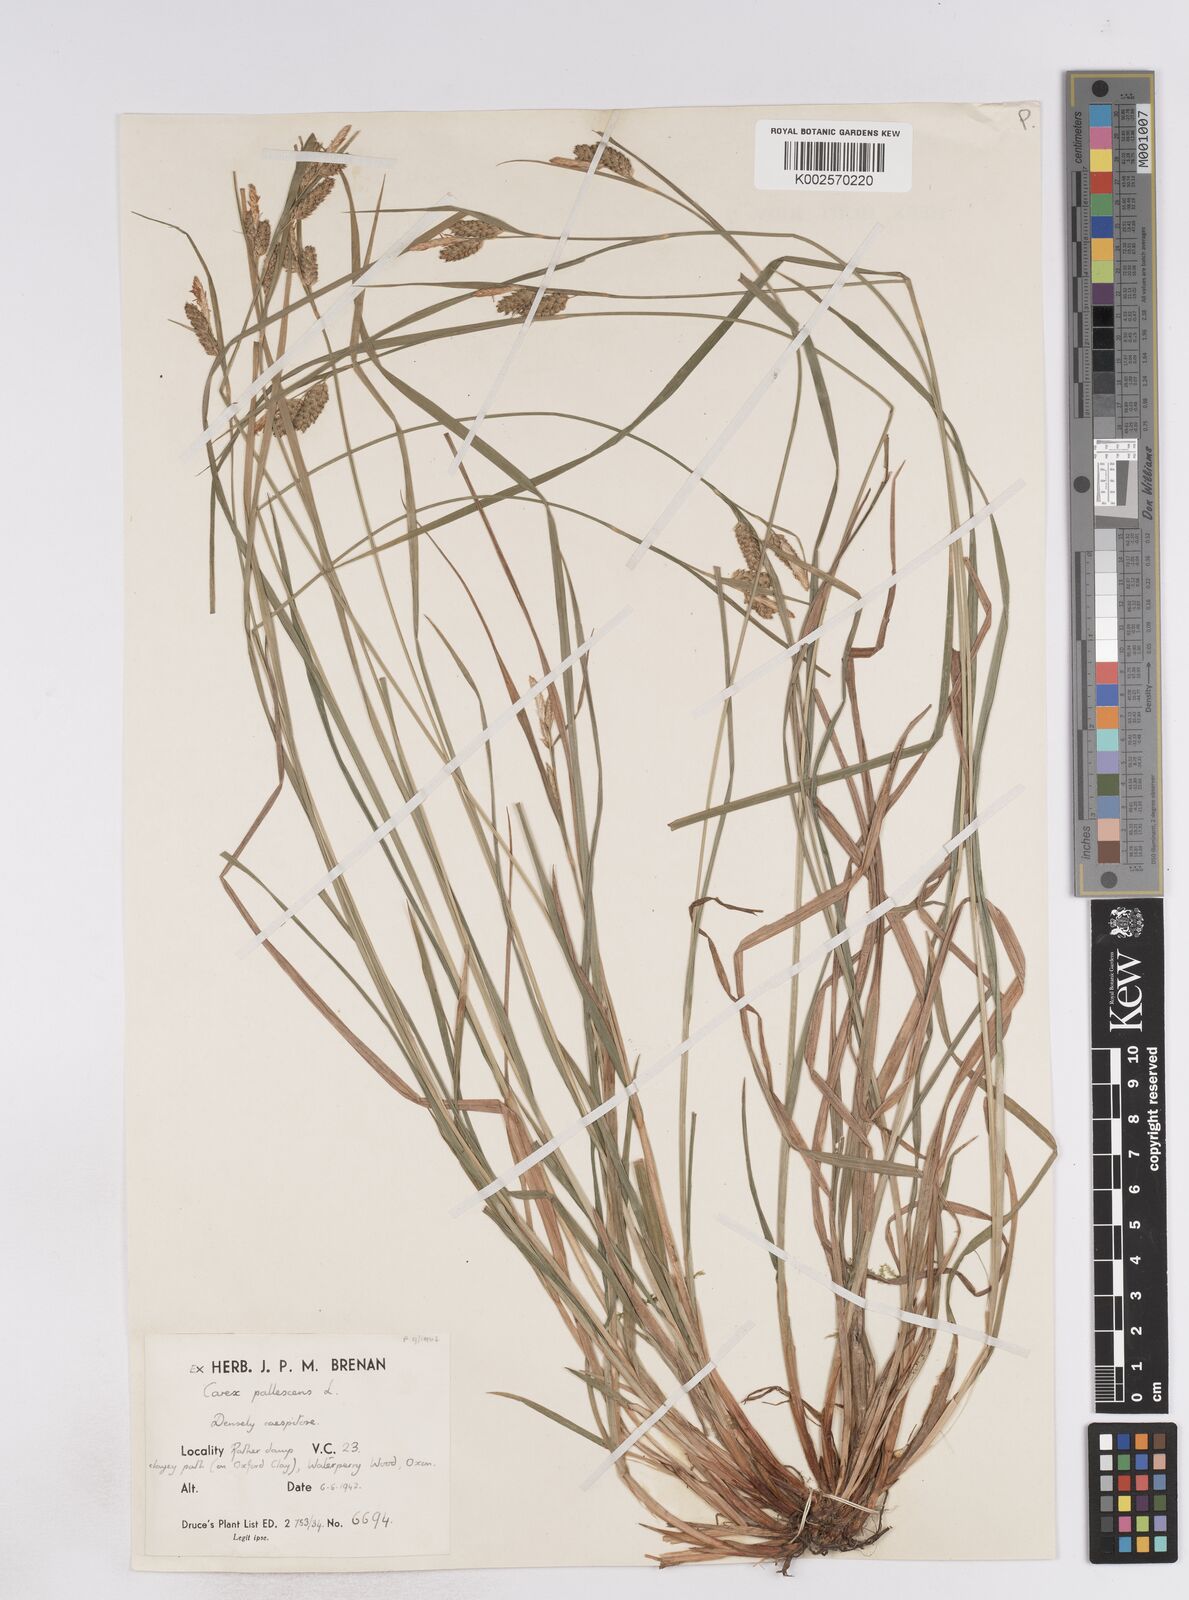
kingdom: Plantae
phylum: Tracheophyta
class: Liliopsida
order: Poales
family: Cyperaceae
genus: Carex
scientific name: Carex pallescens
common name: Pale sedge
